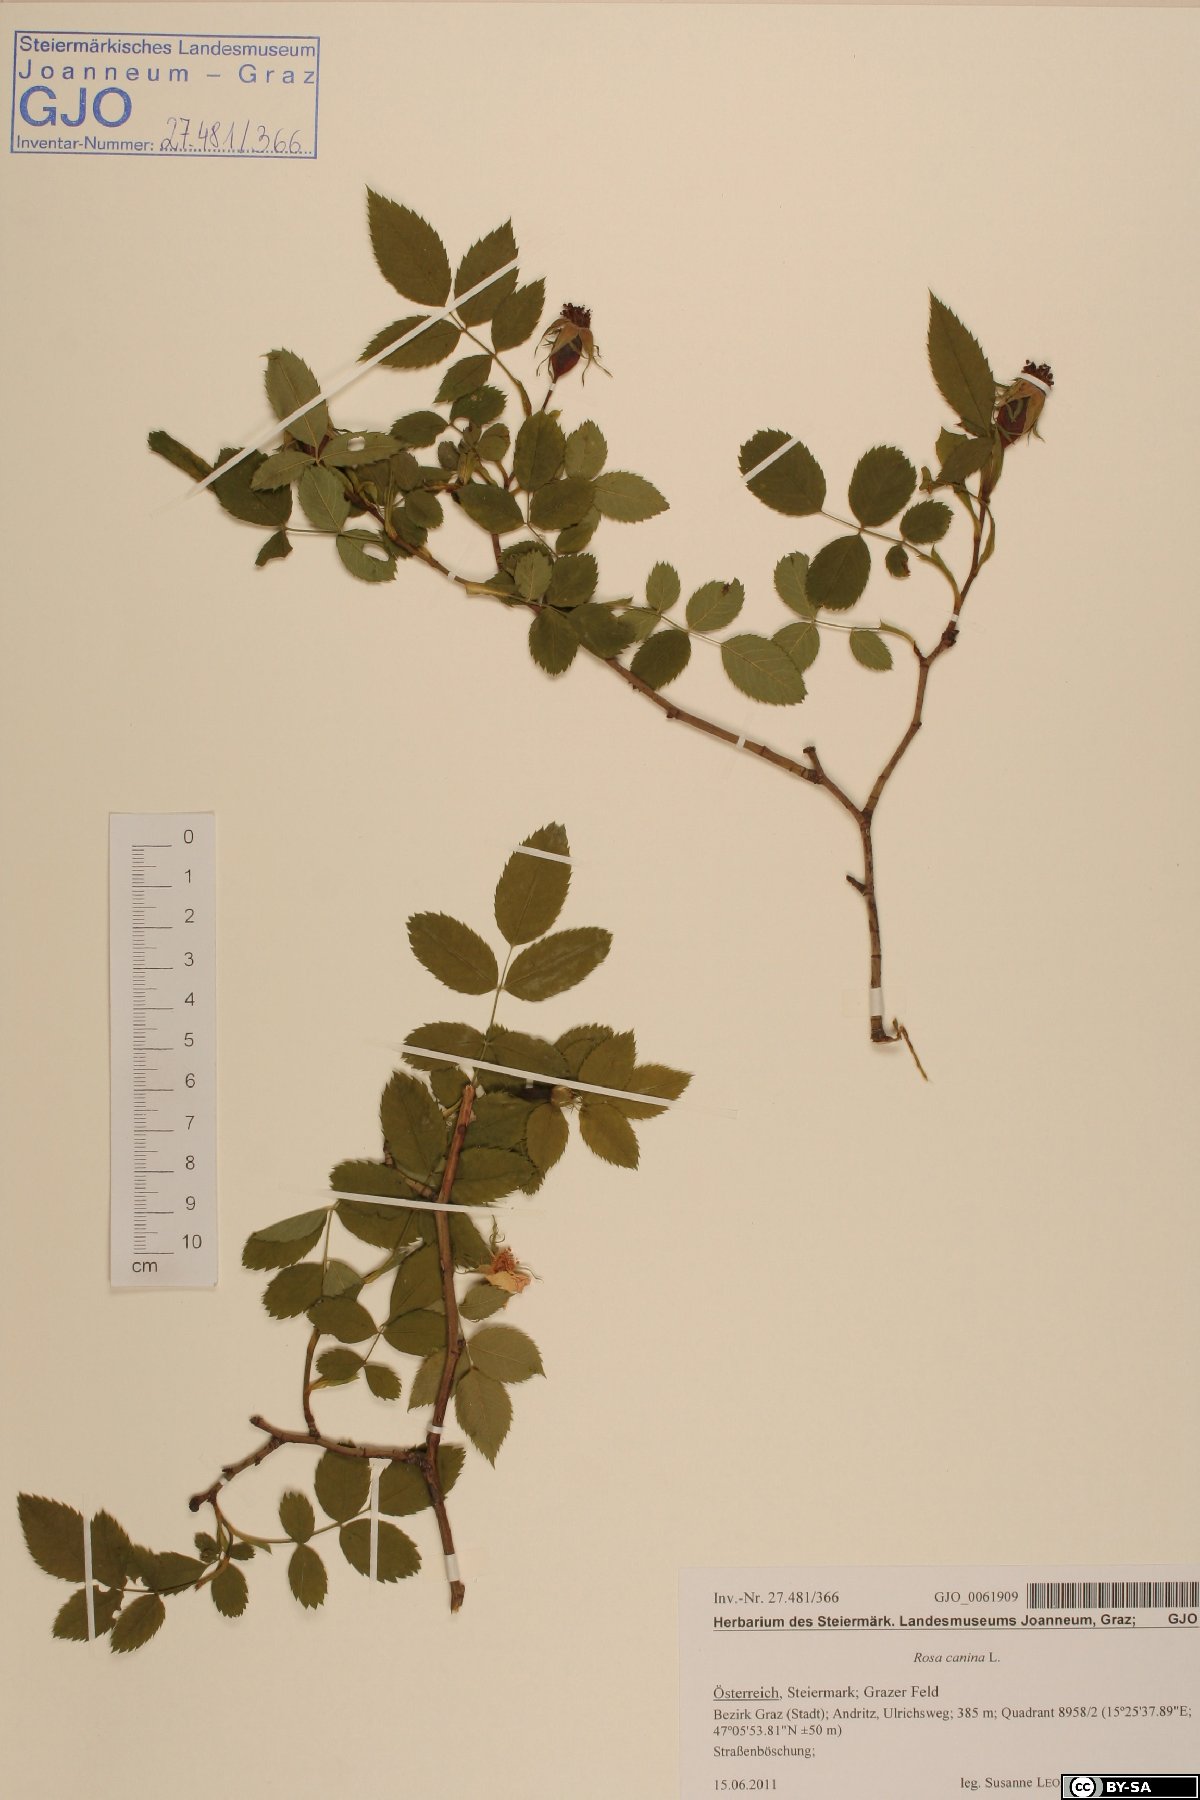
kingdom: Plantae
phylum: Tracheophyta
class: Magnoliopsida
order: Rosales
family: Rosaceae
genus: Rosa
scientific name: Rosa canina
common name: Dog rose
